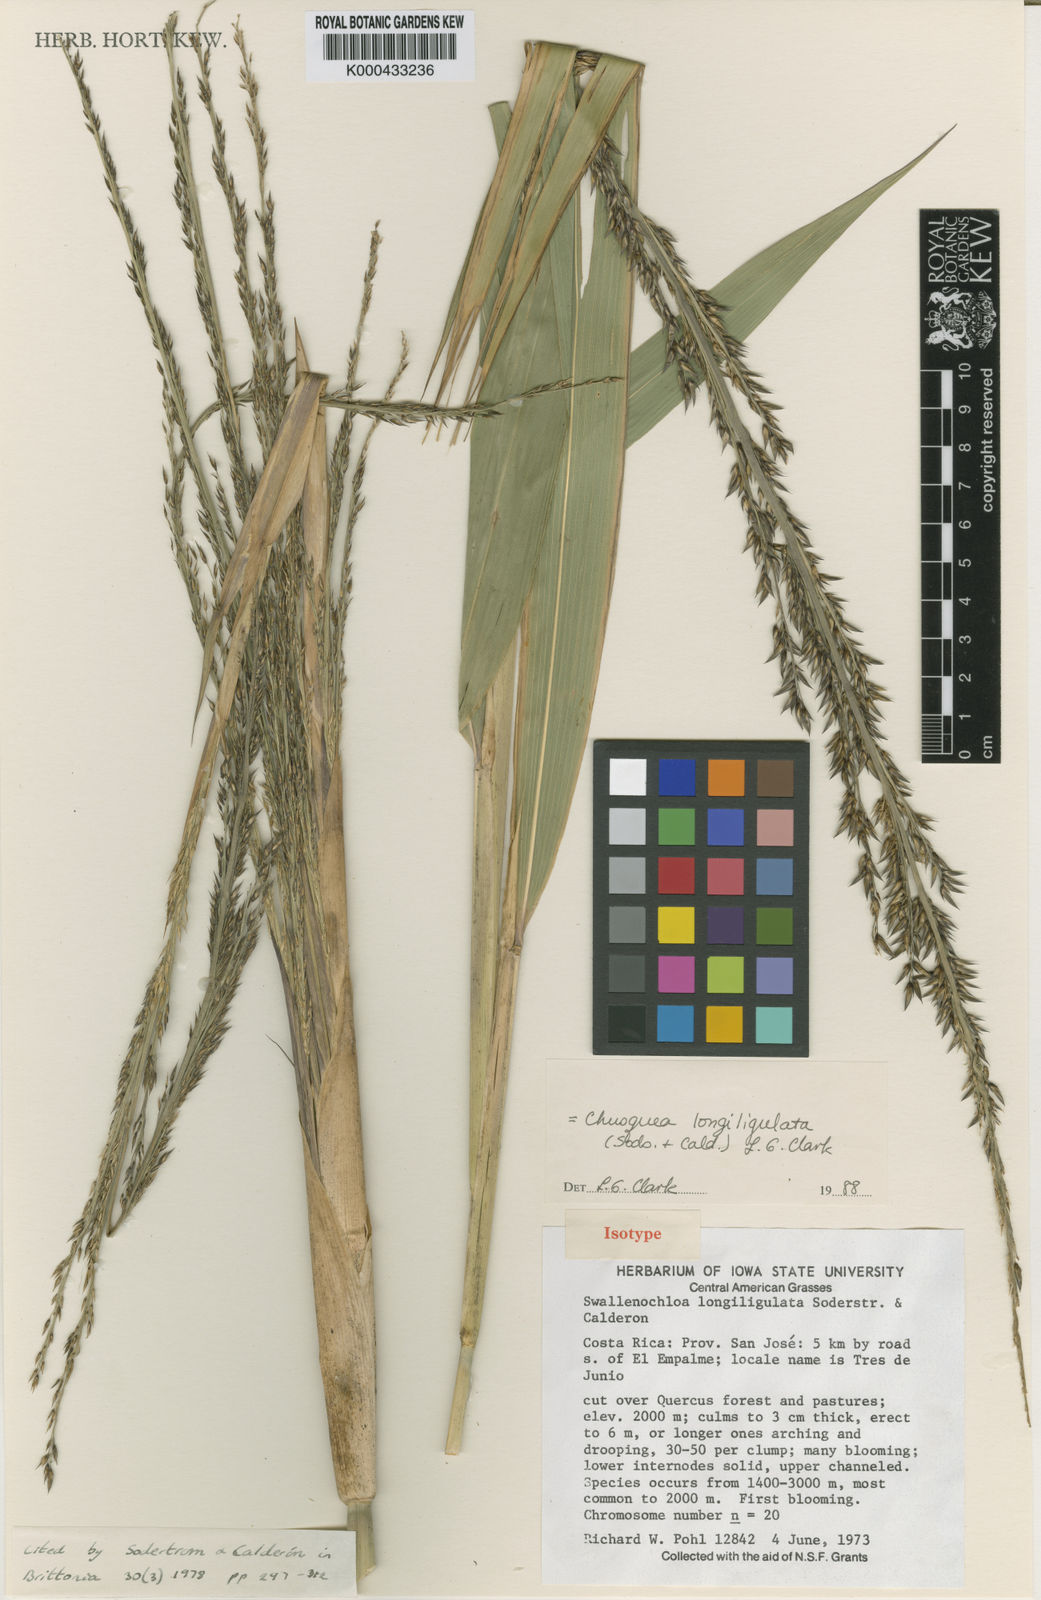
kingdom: Plantae
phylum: Tracheophyta
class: Liliopsida
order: Poales
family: Poaceae
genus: Chusquea
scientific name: Chusquea longiligulata
